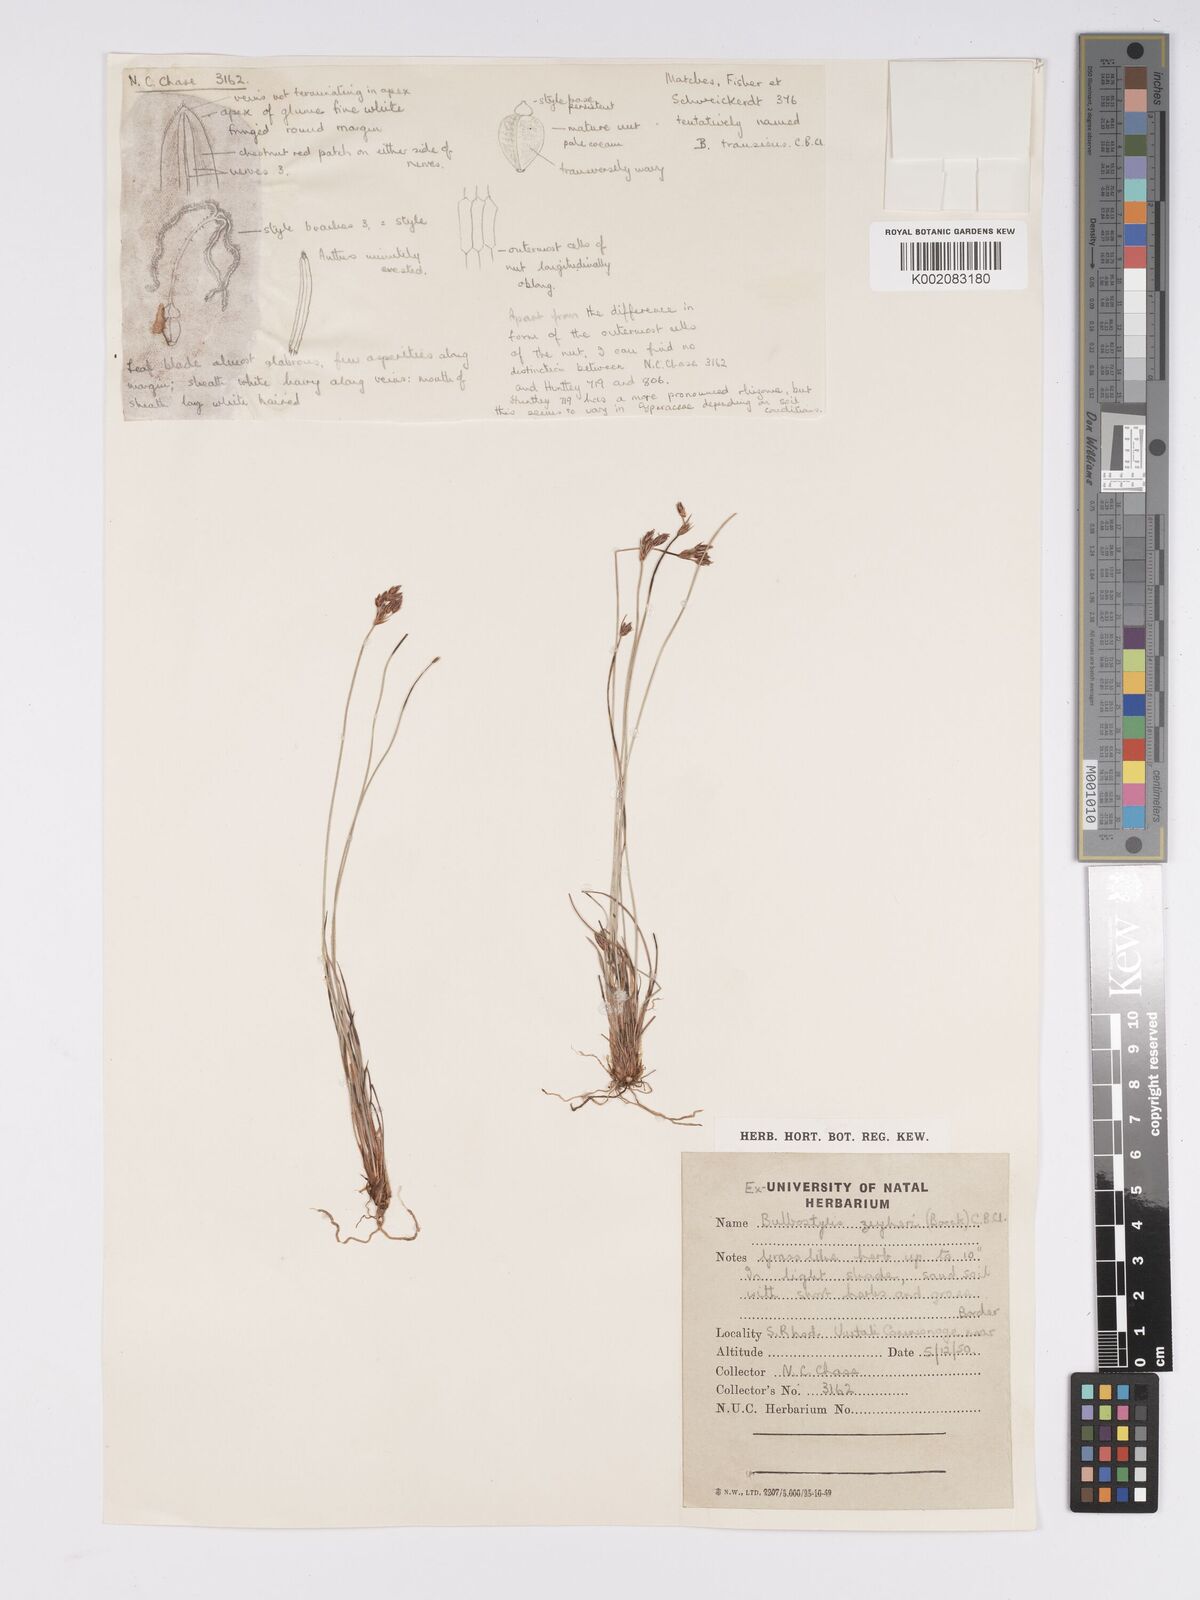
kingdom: Plantae
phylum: Tracheophyta
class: Liliopsida
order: Poales
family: Cyperaceae
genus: Bulbostylis
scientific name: Bulbostylis contexta
